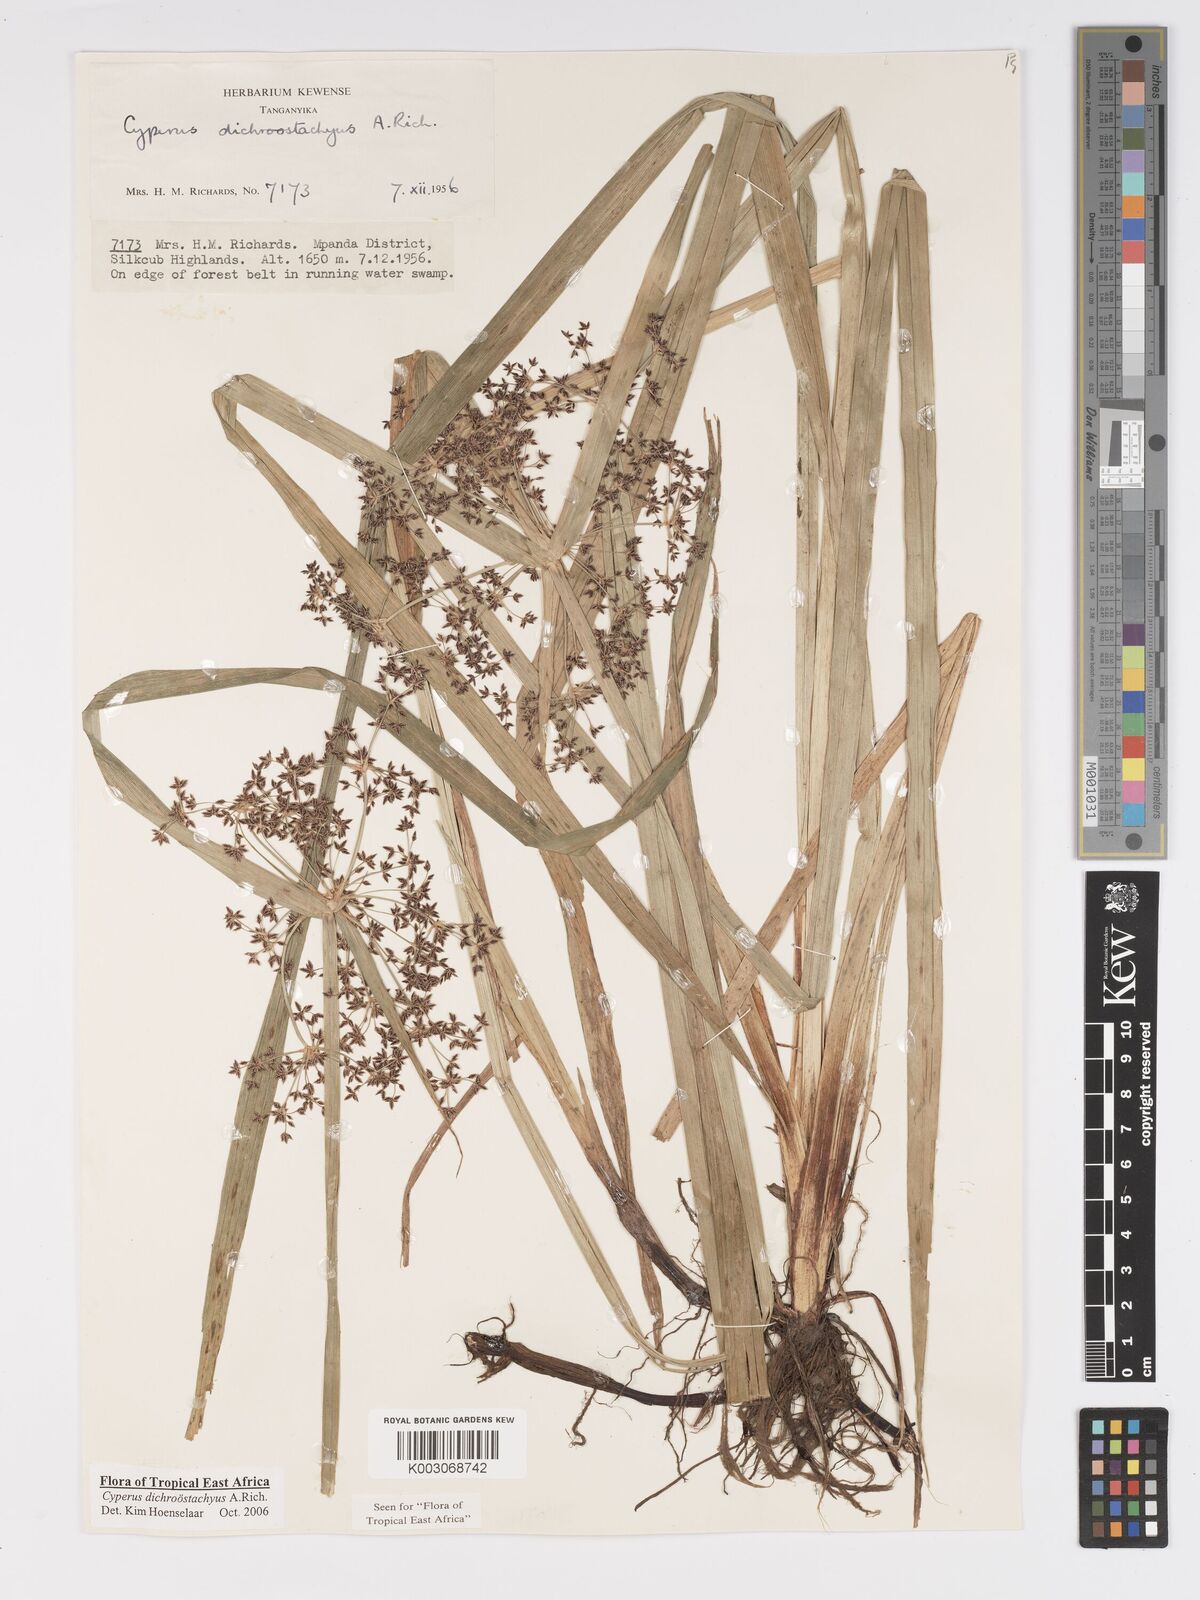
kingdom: Plantae
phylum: Tracheophyta
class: Liliopsida
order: Poales
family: Cyperaceae
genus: Cyperus
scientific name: Cyperus dichrostachyus
